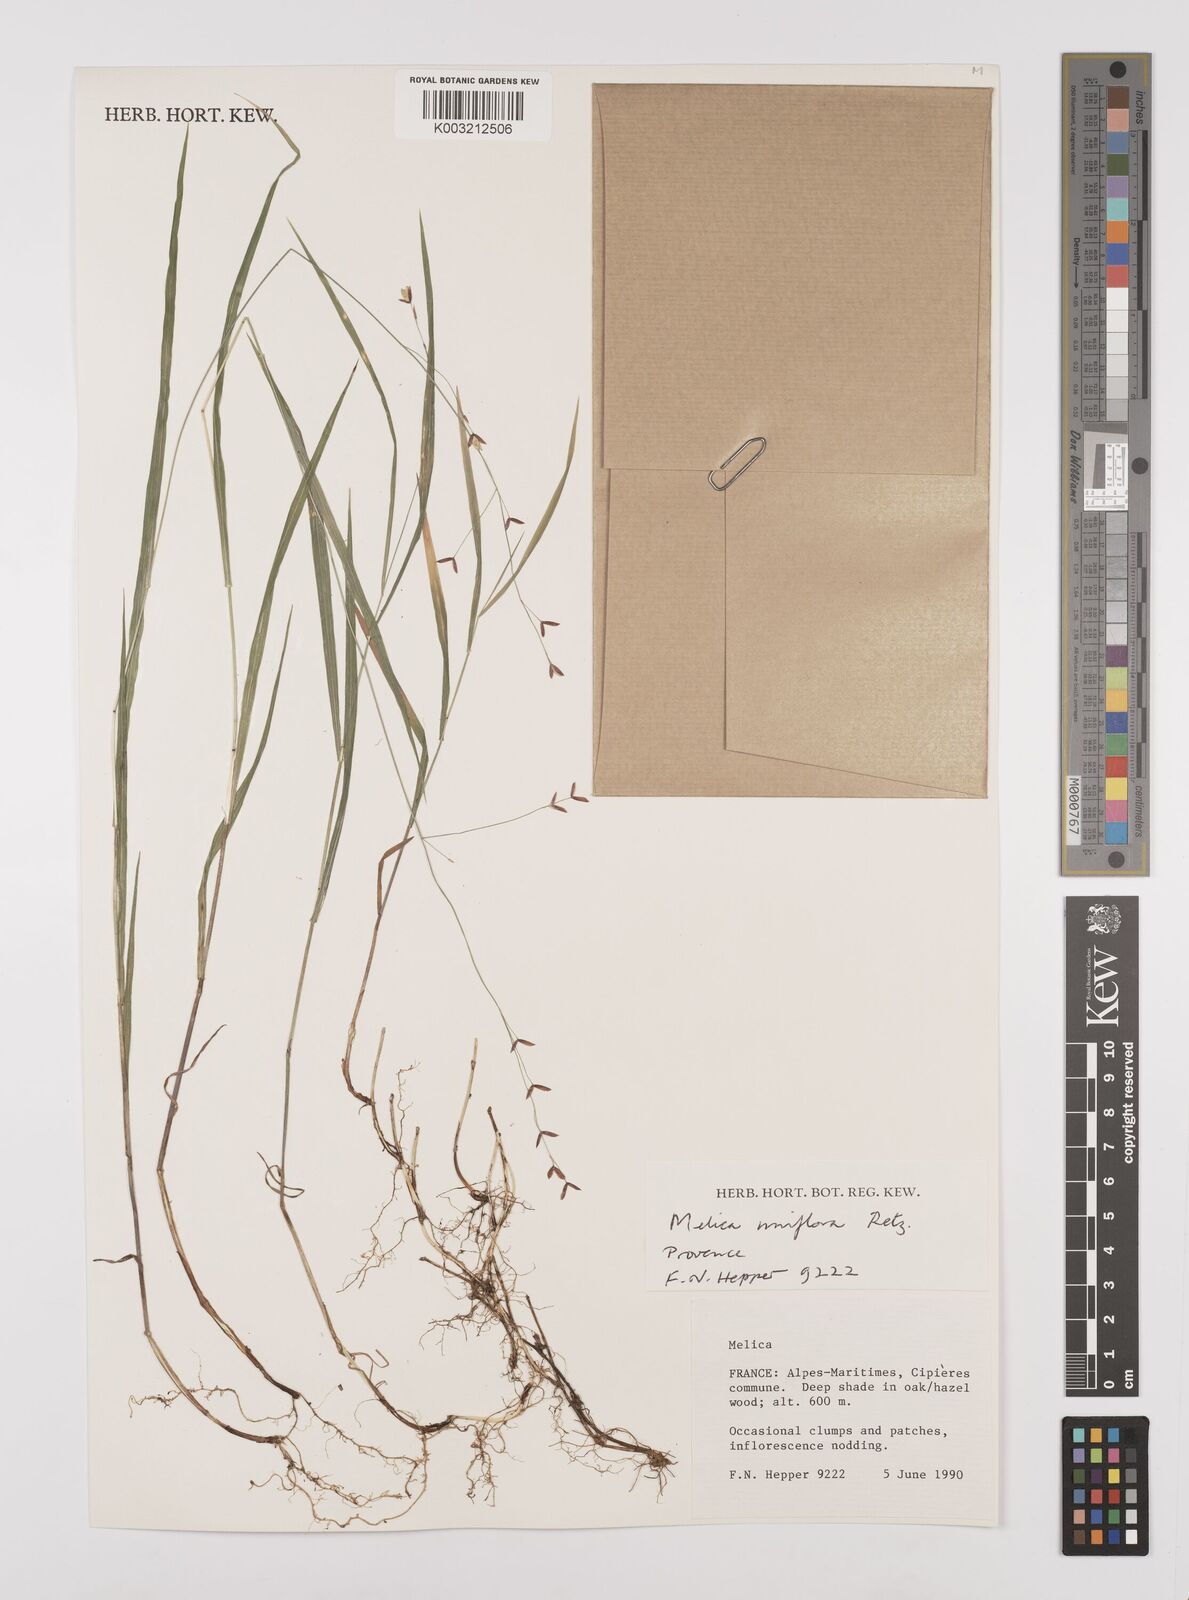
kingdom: Plantae
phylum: Tracheophyta
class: Liliopsida
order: Poales
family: Poaceae
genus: Melica
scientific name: Melica uniflora
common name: Wood melick
